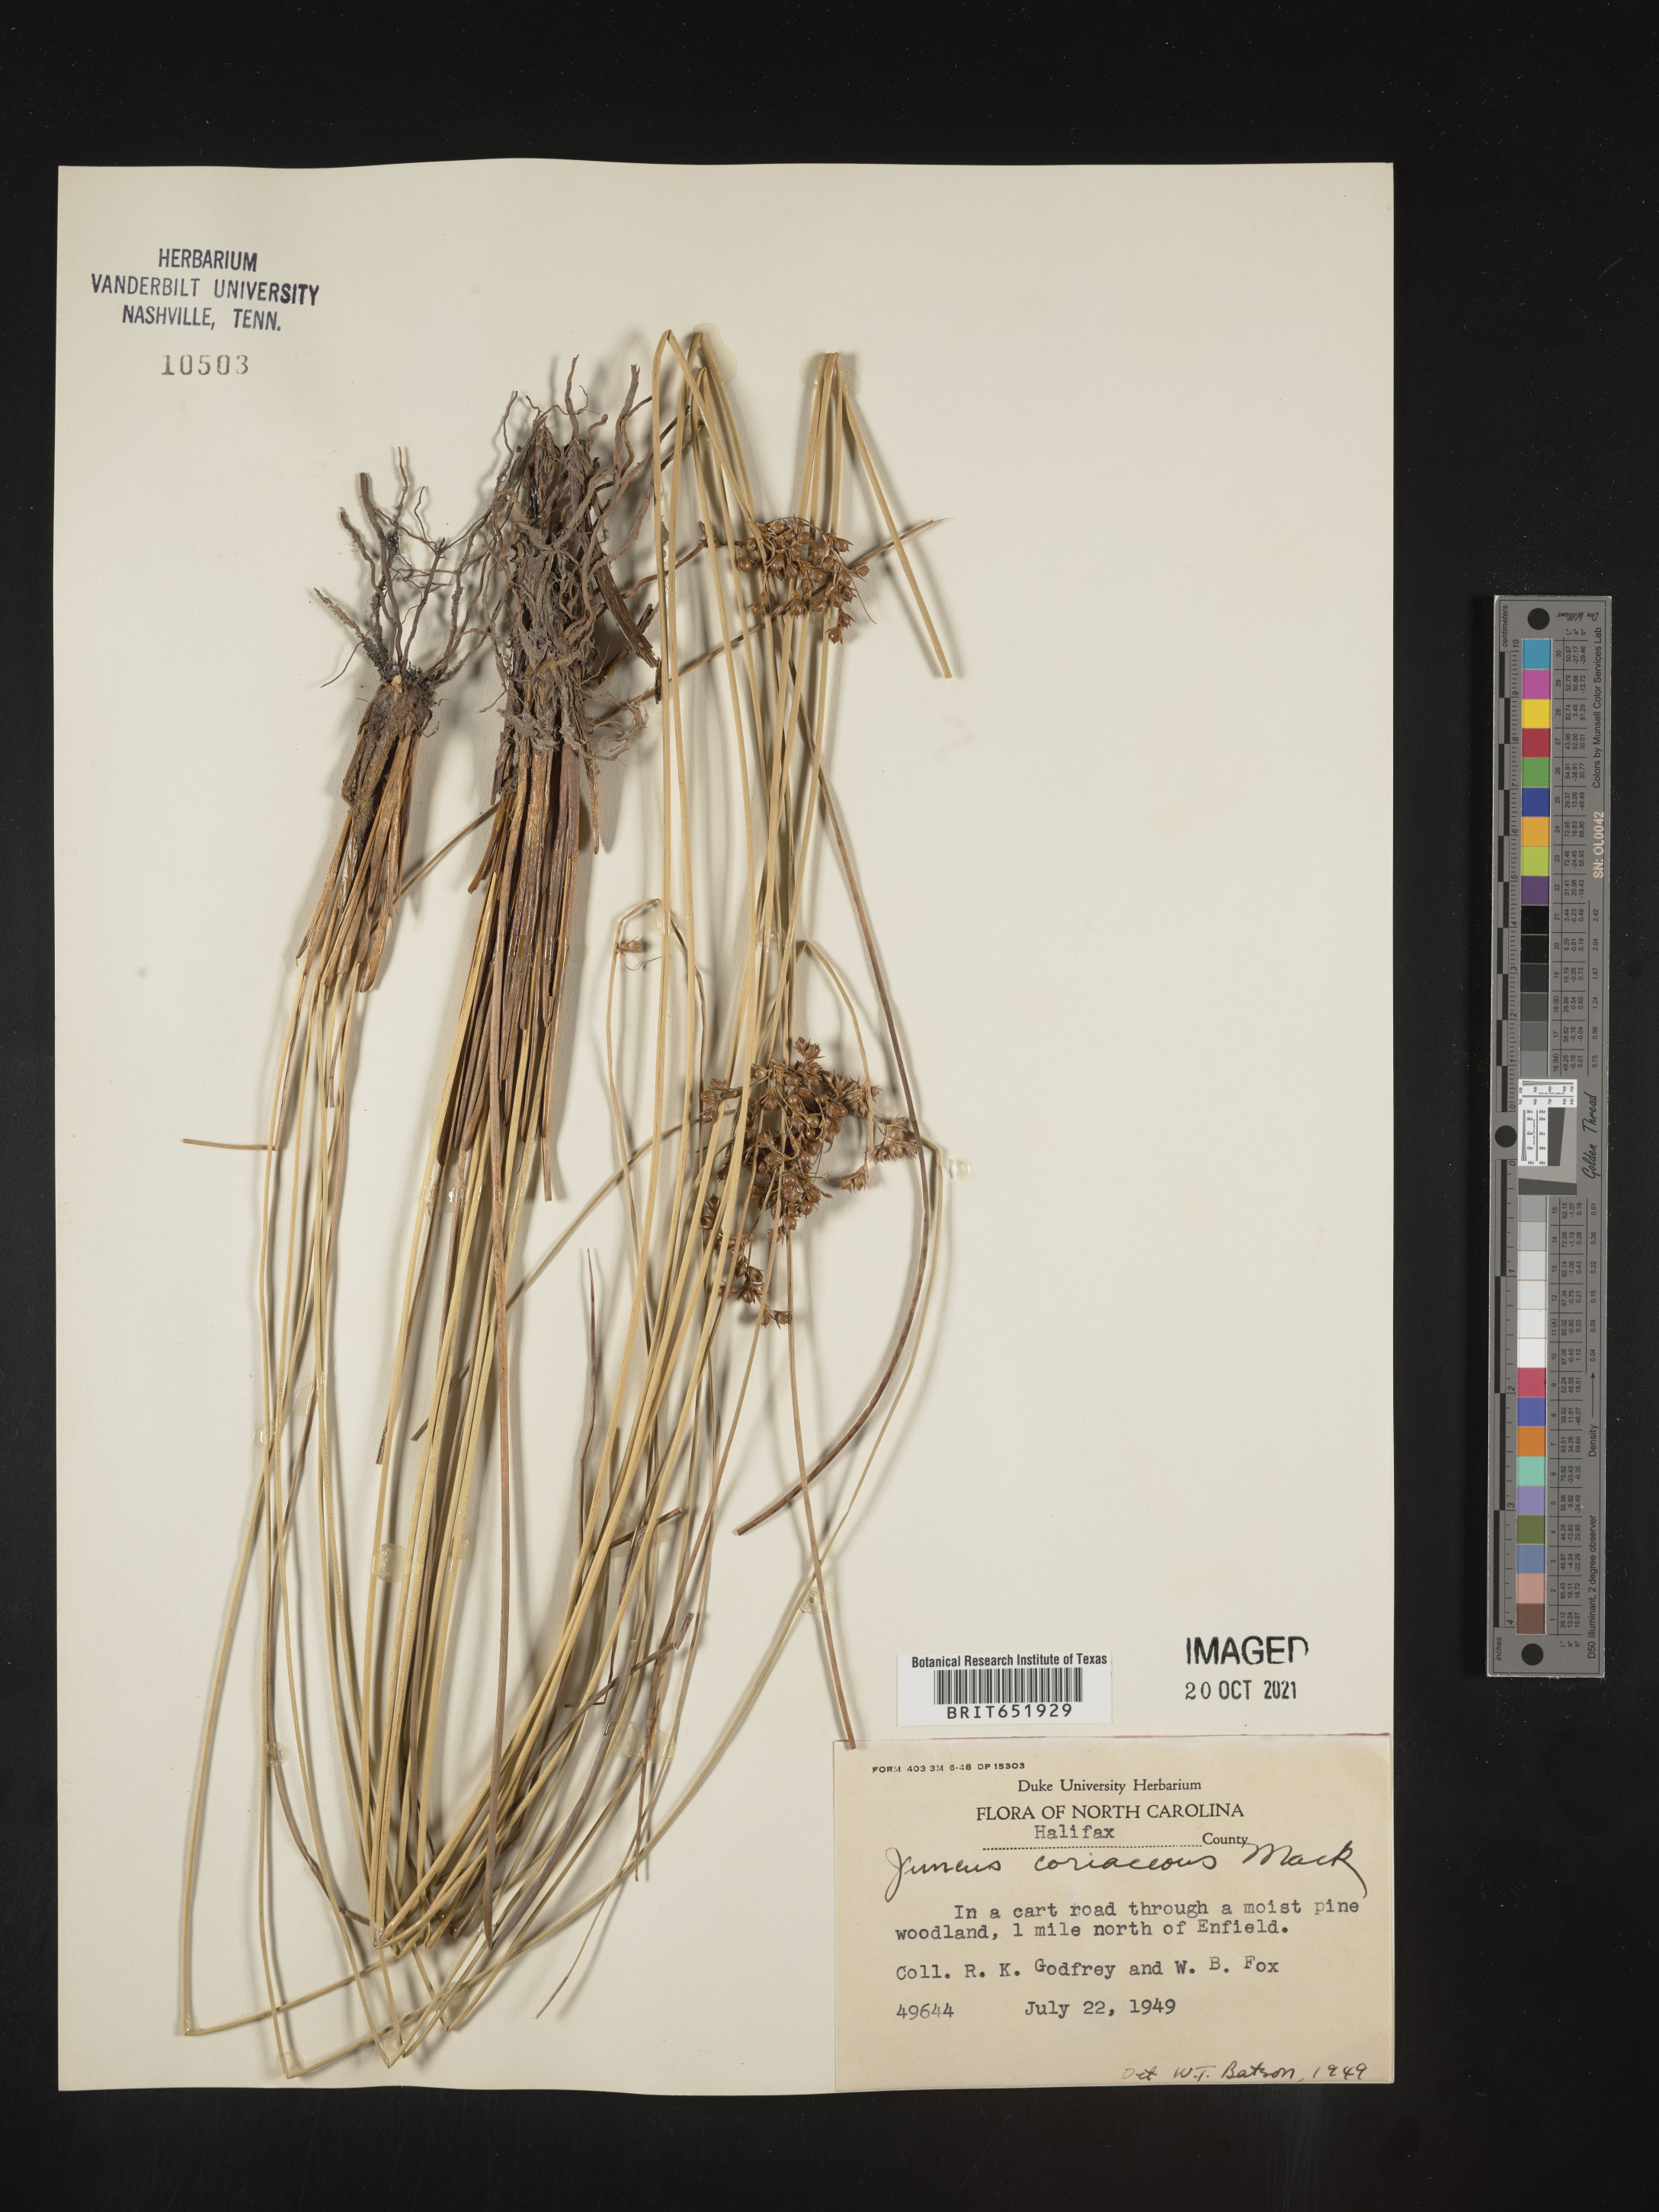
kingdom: Plantae
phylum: Tracheophyta
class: Liliopsida
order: Poales
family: Juncaceae
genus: Juncus
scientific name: Juncus coriaceus
